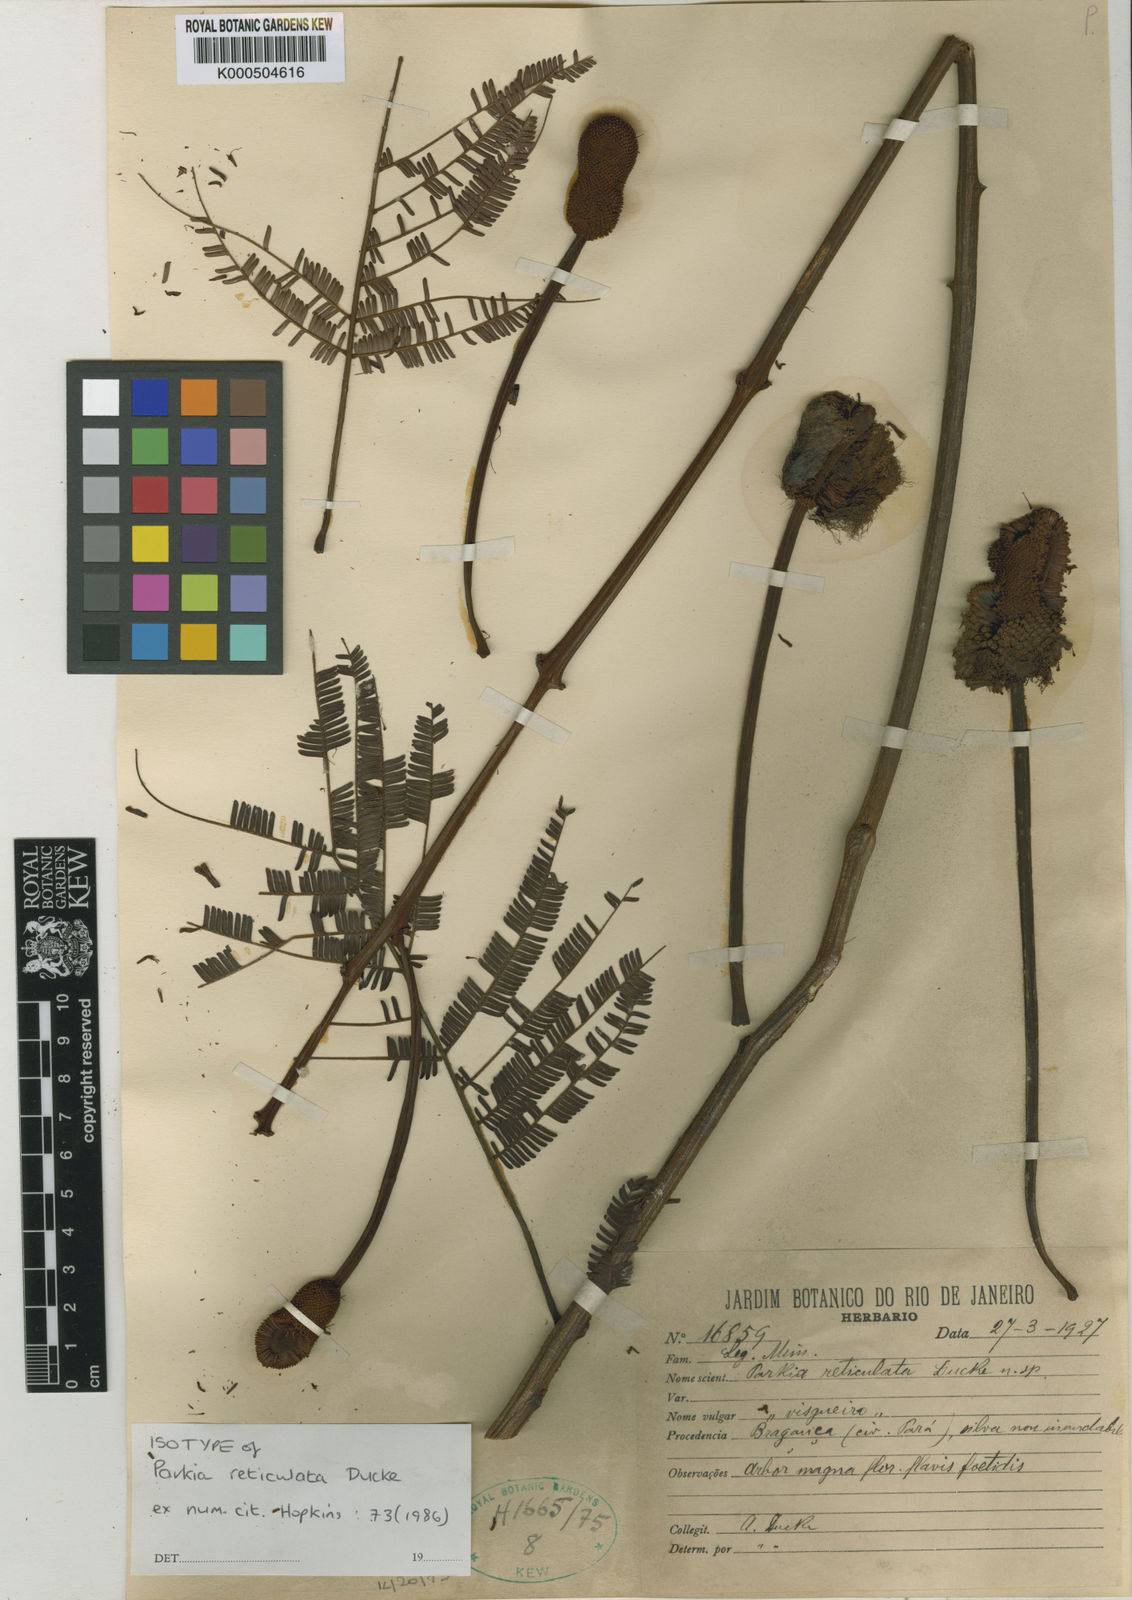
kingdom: Plantae
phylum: Tracheophyta
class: Magnoliopsida
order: Fabales
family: Fabaceae
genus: Parkia
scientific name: Parkia reticulata
